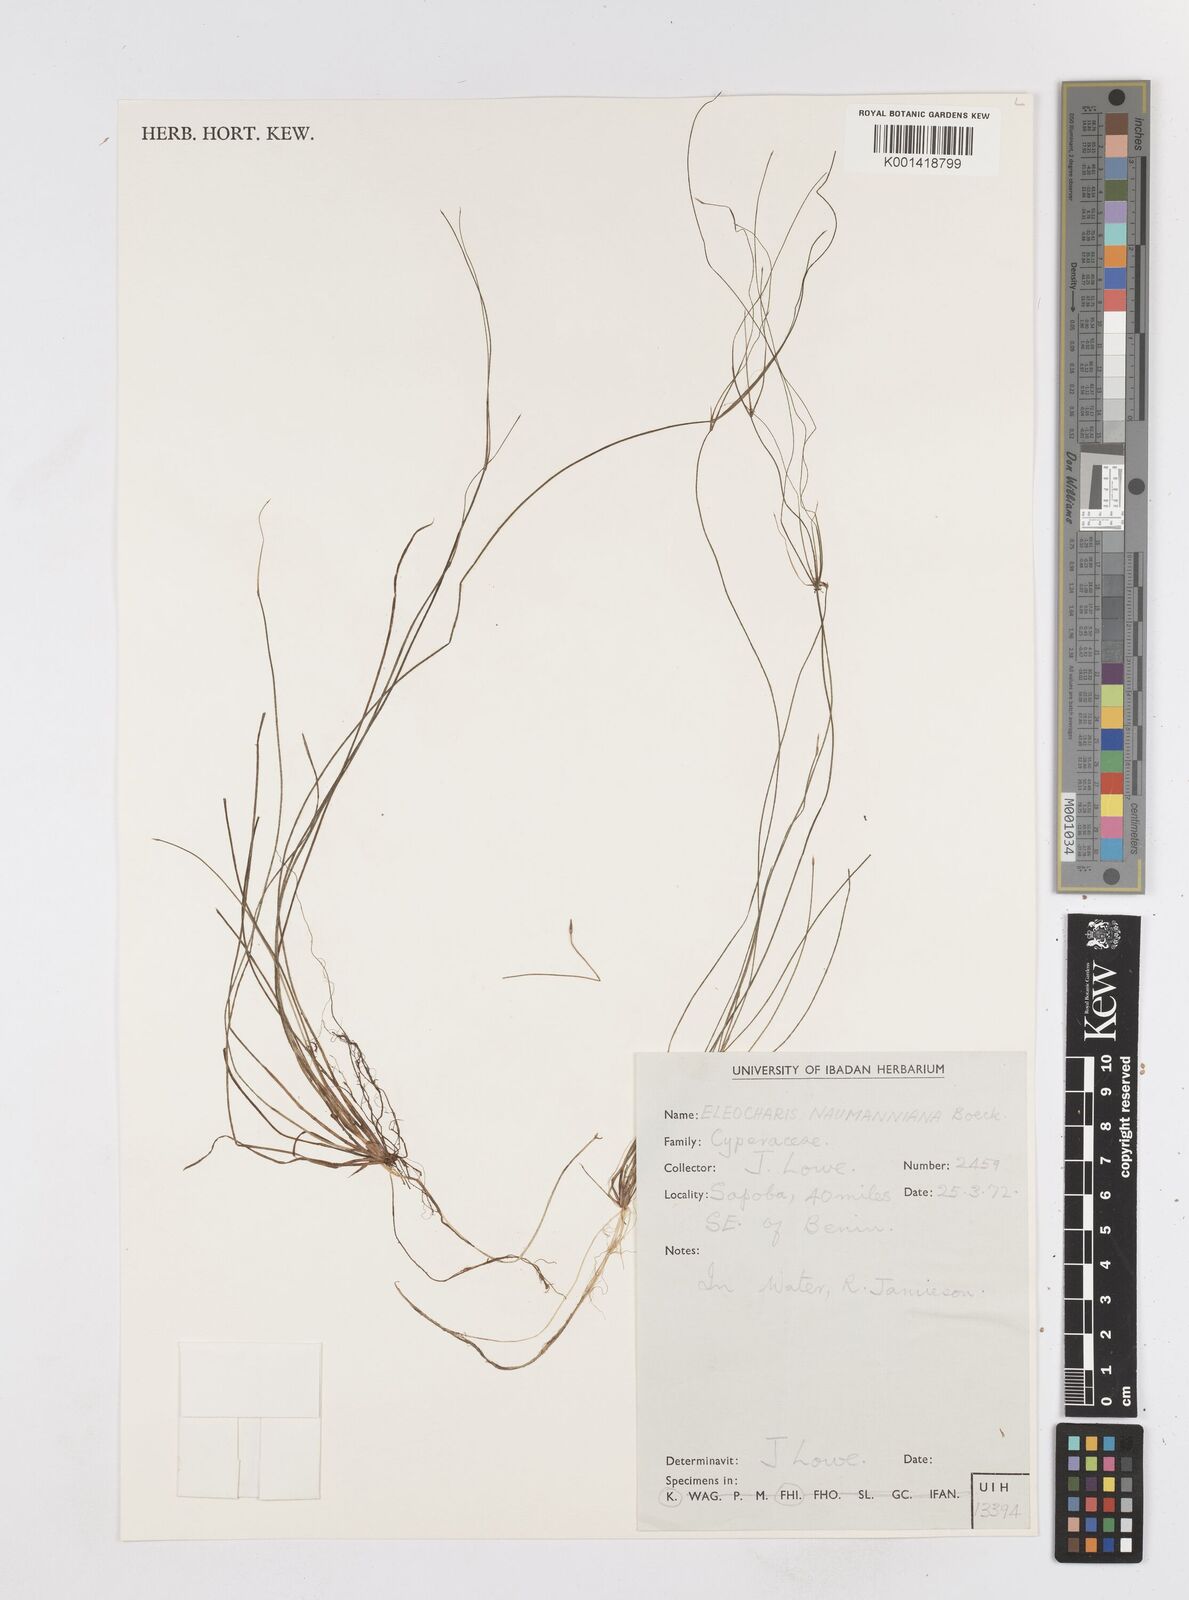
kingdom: Plantae
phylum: Tracheophyta
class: Liliopsida
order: Poales
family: Cyperaceae
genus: Eleocharis
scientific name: Eleocharis naumanniana
